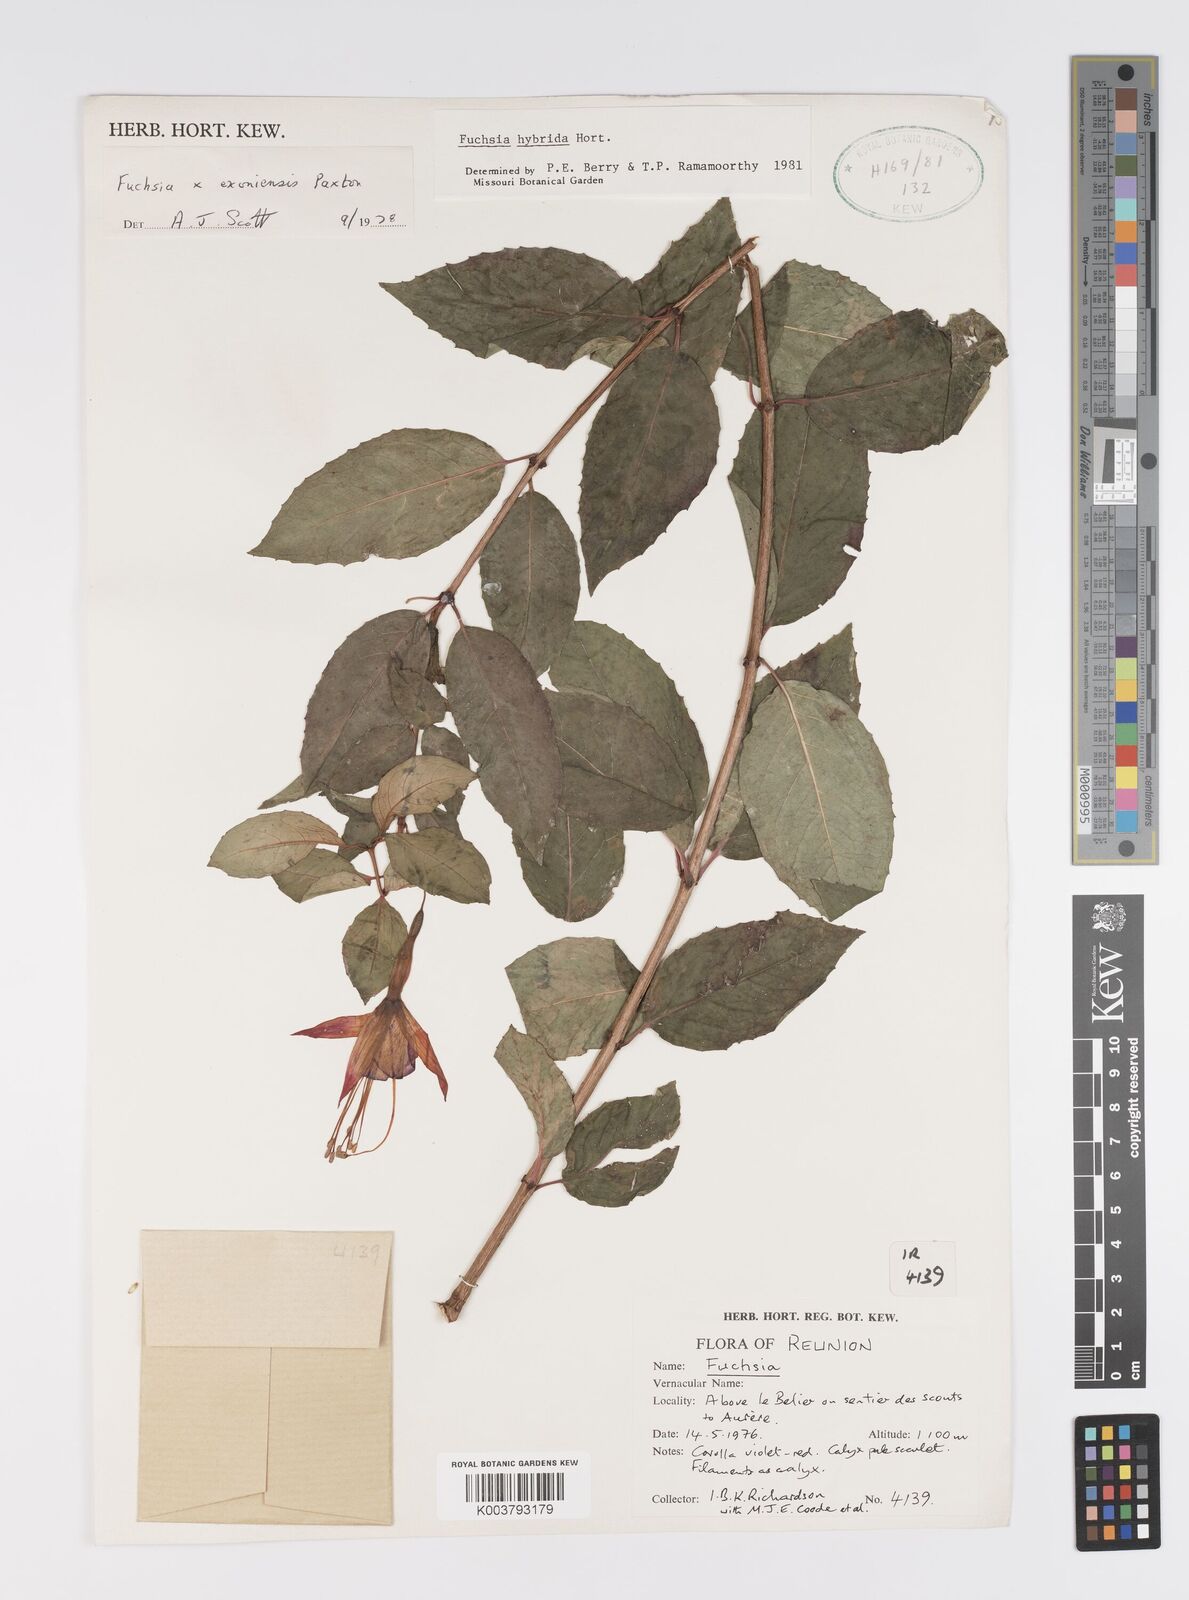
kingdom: Plantae
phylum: Tracheophyta
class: Magnoliopsida
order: Myrtales
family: Onagraceae
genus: Fuchsia
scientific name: Fuchsia
